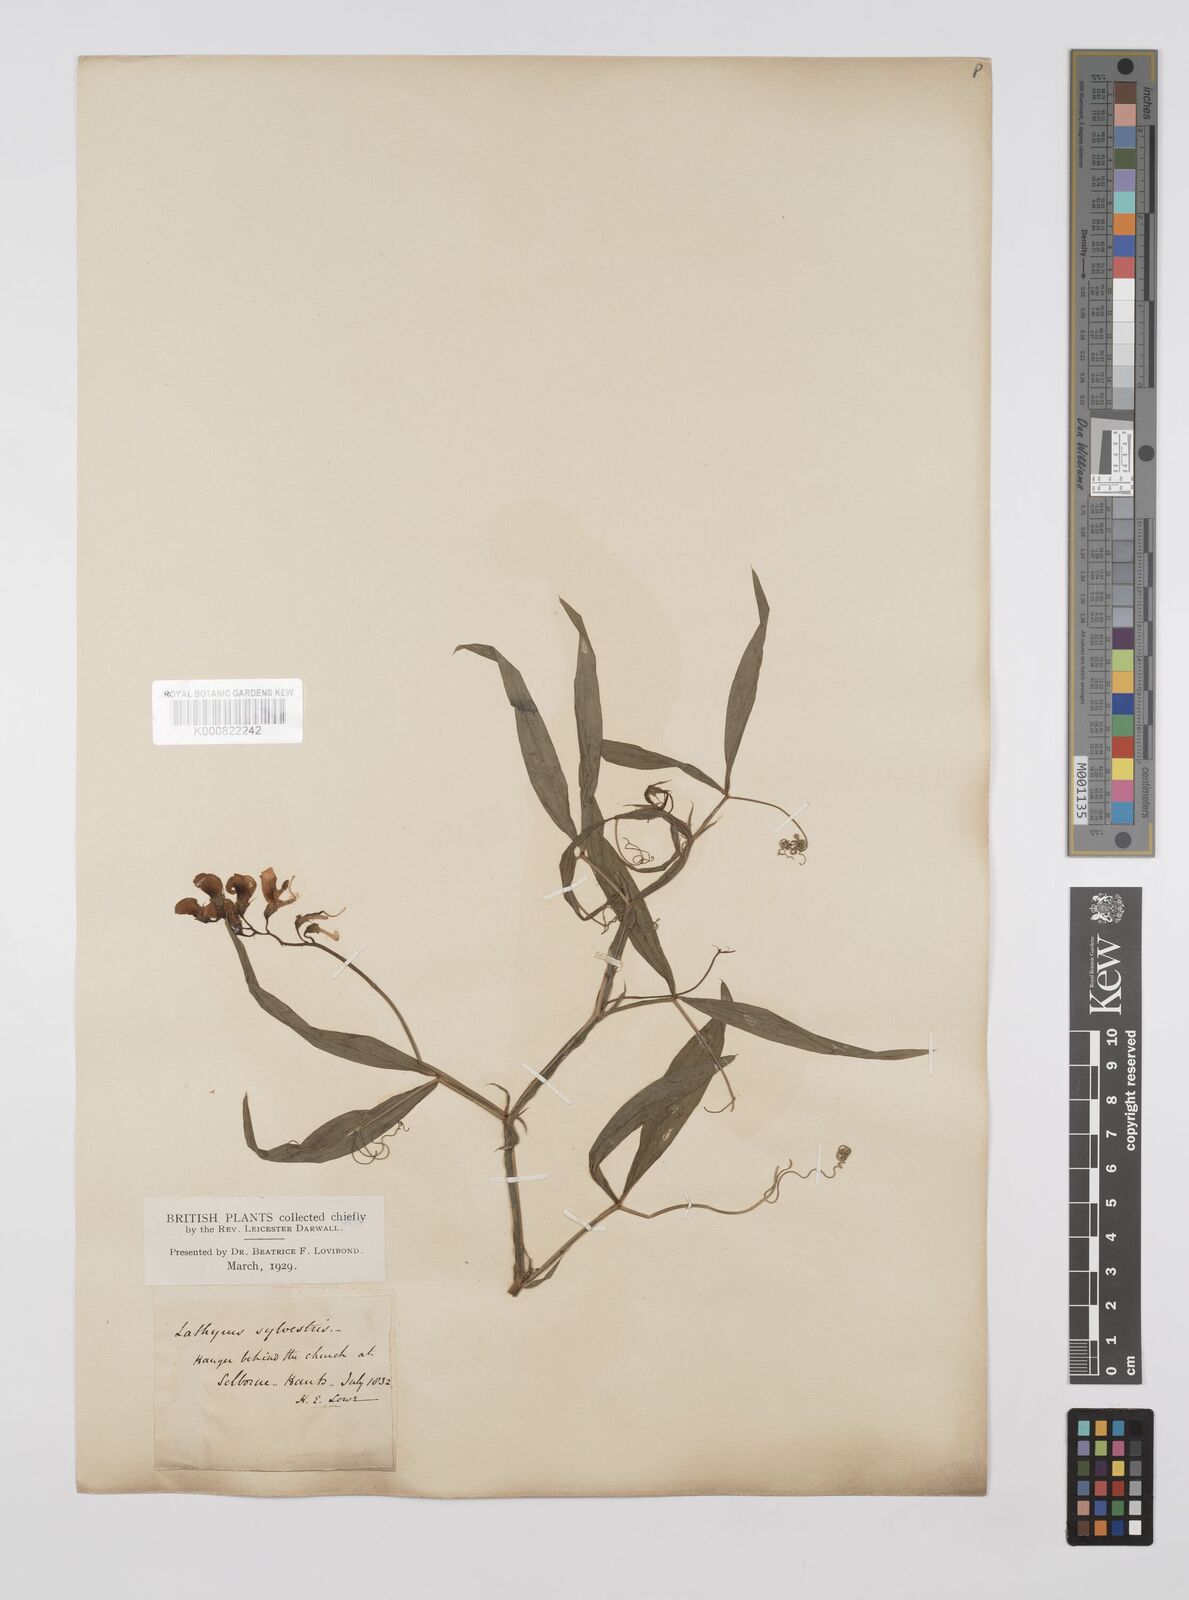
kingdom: Plantae
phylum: Tracheophyta
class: Magnoliopsida
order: Fabales
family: Fabaceae
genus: Lathyrus
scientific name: Lathyrus sylvestris
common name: Flat pea
